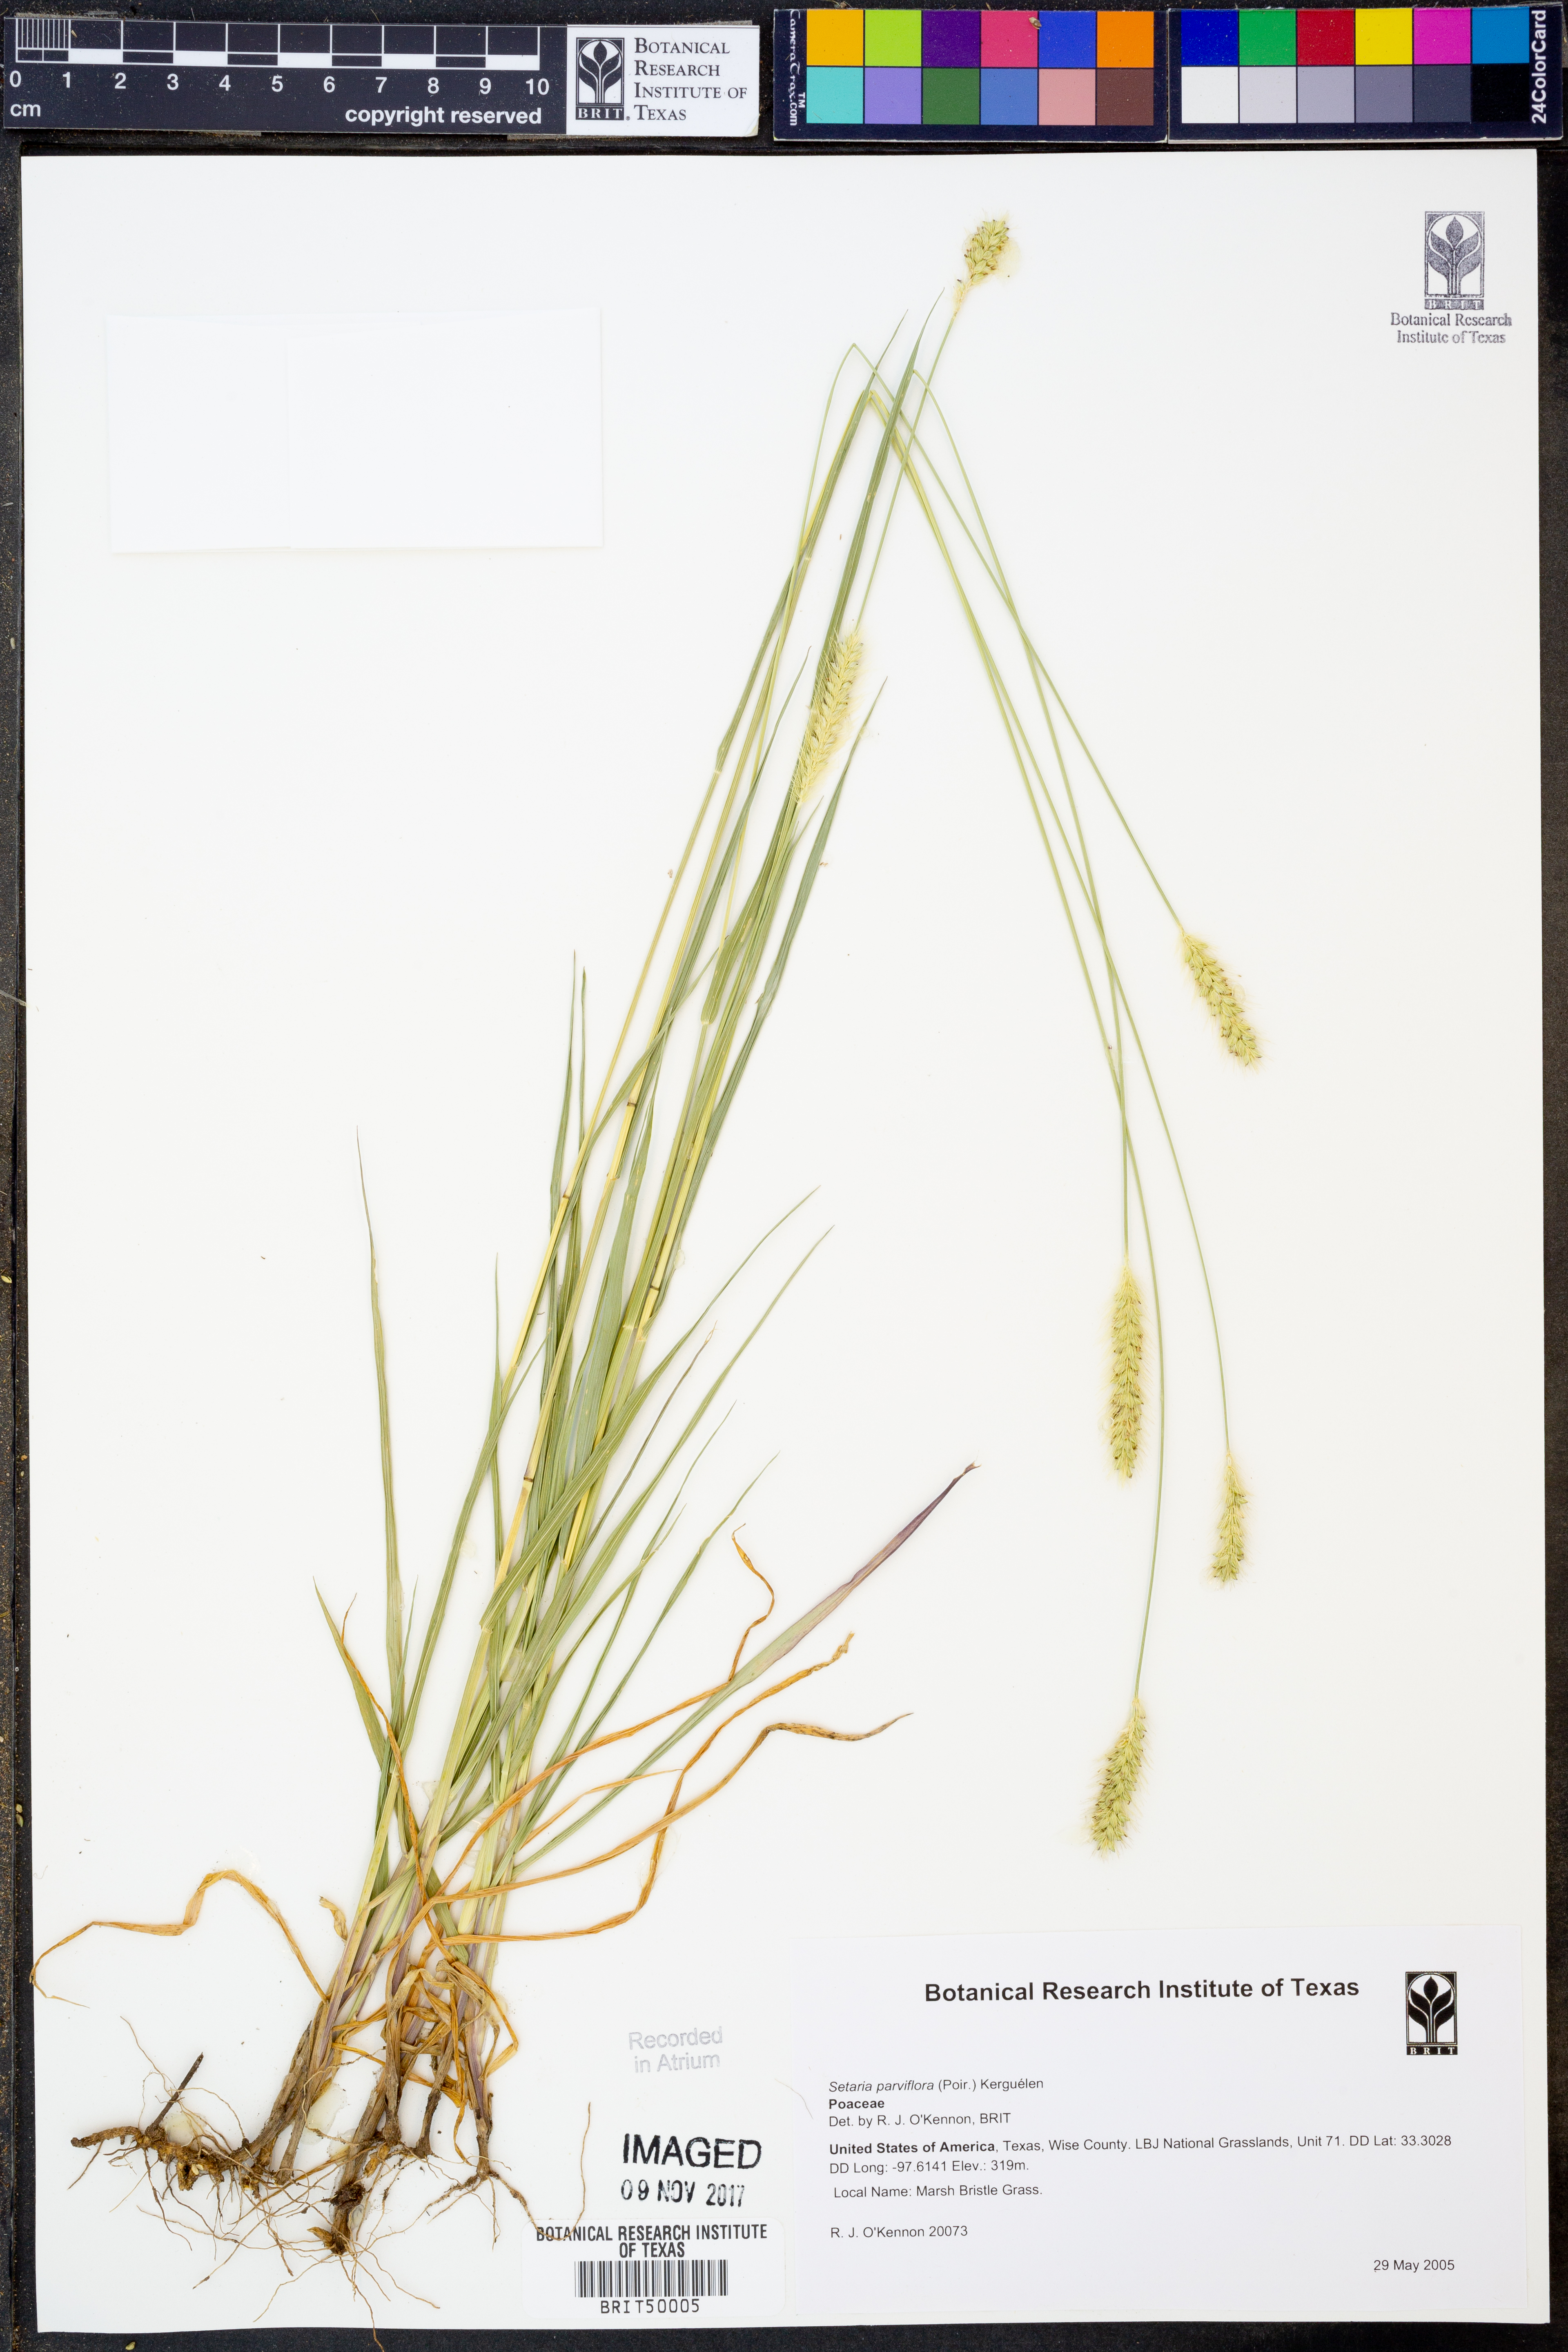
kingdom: Plantae
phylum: Tracheophyta
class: Liliopsida
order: Poales
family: Poaceae
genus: Setaria
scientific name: Setaria parviflora
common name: Knotroot bristle-grass
